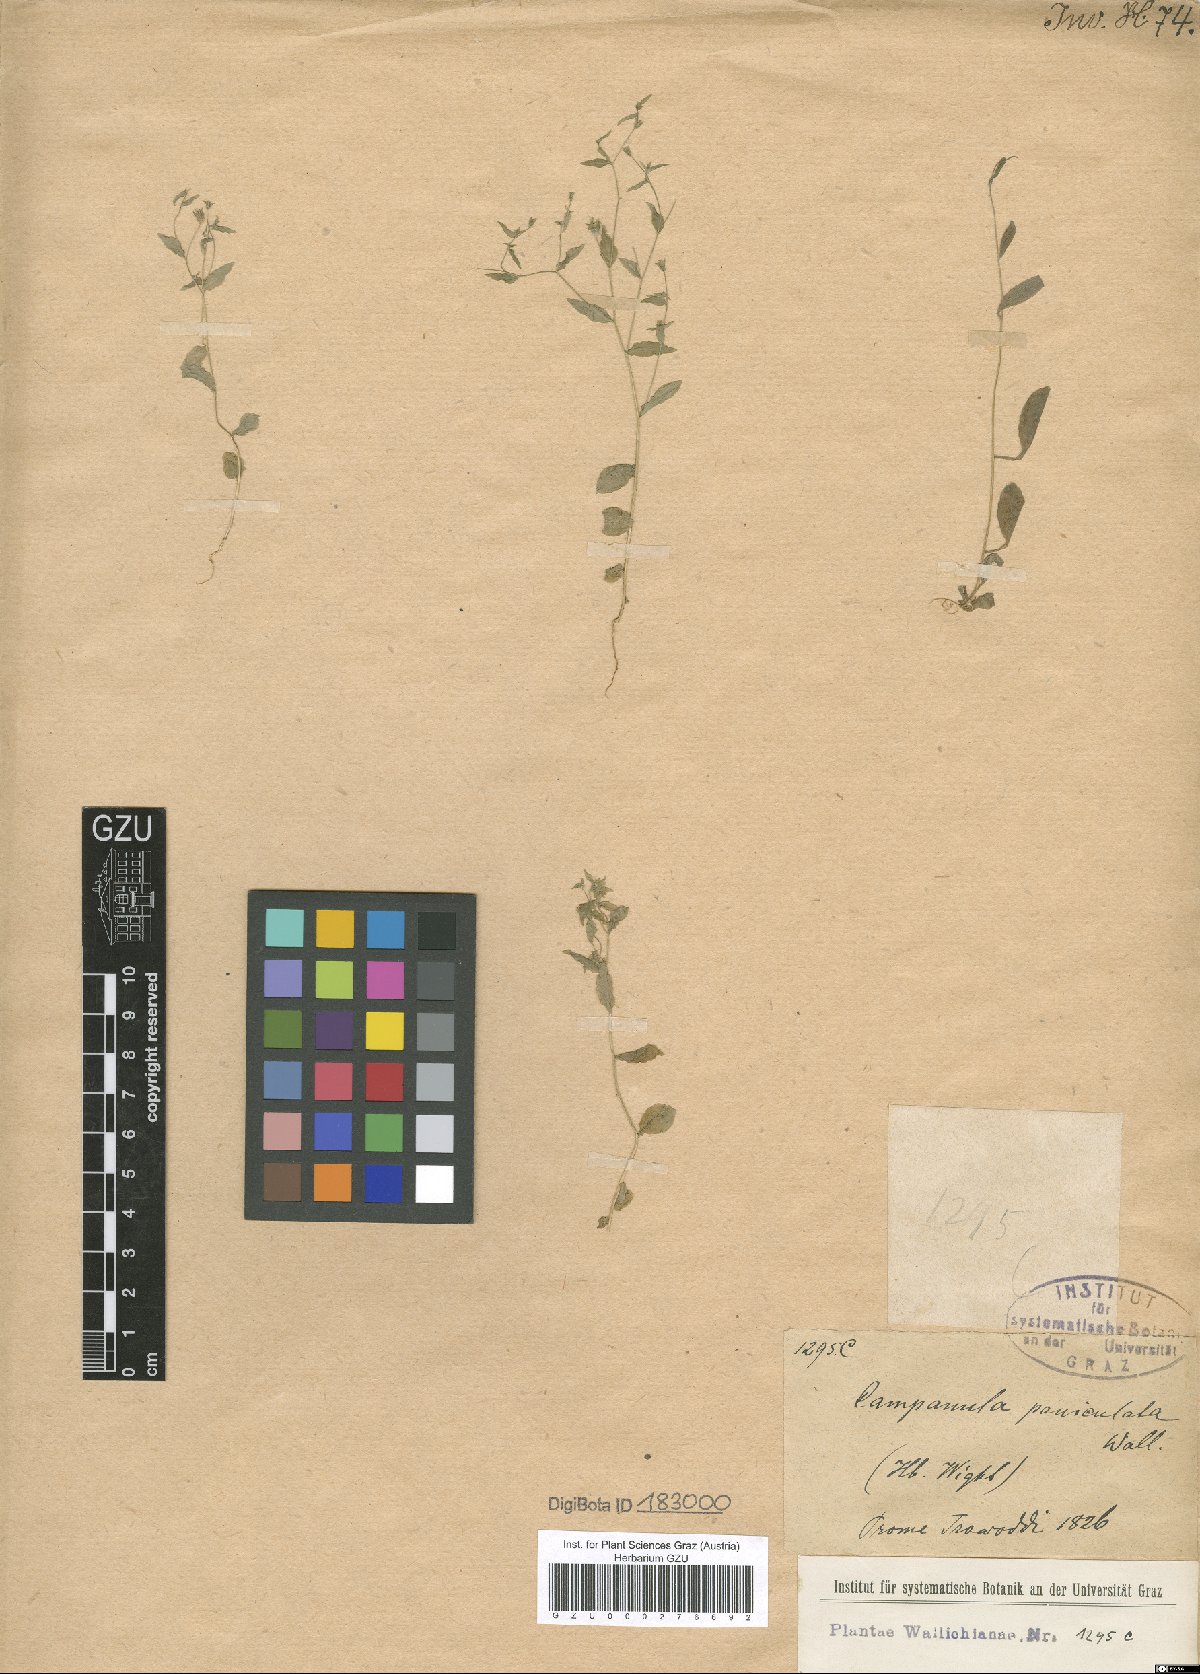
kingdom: Plantae
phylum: Tracheophyta
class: Magnoliopsida
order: Asterales
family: Campanulaceae
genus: Campanula
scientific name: Campanula paniculata
